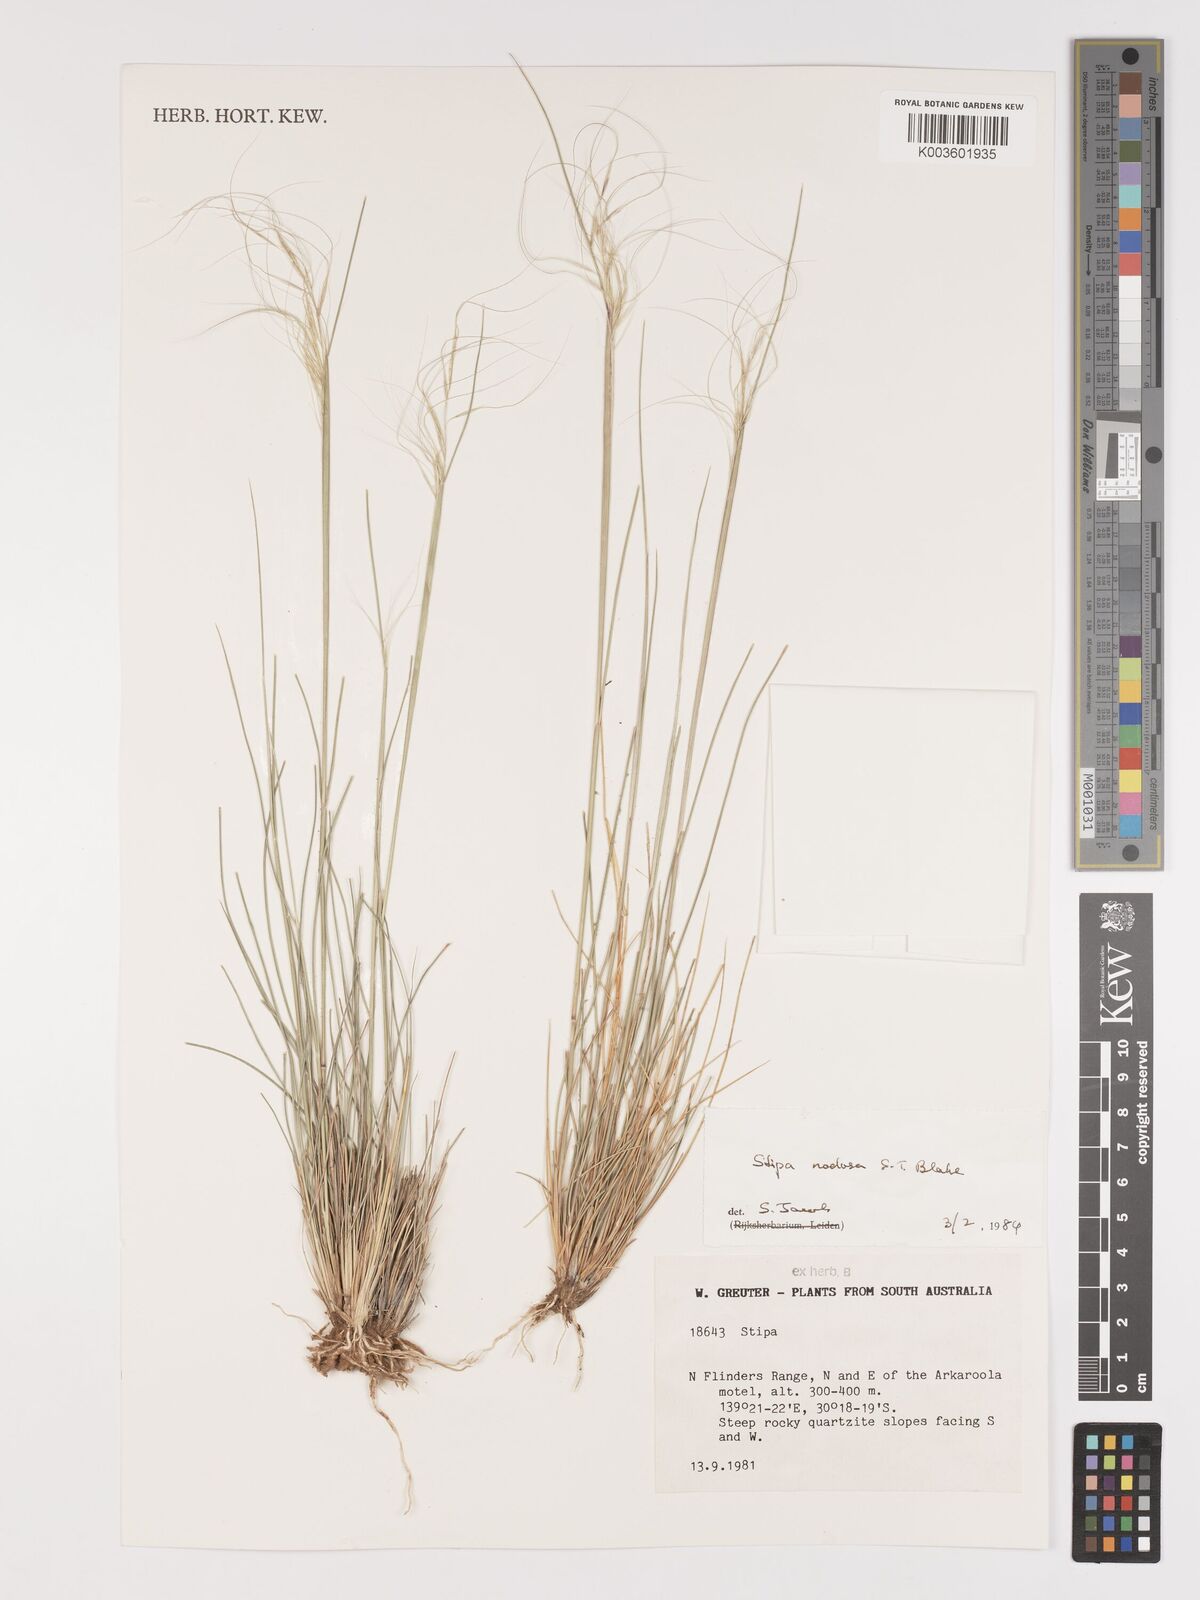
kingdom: Plantae
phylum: Tracheophyta
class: Liliopsida
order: Poales
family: Poaceae
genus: Austrostipa
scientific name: Austrostipa nodosa
